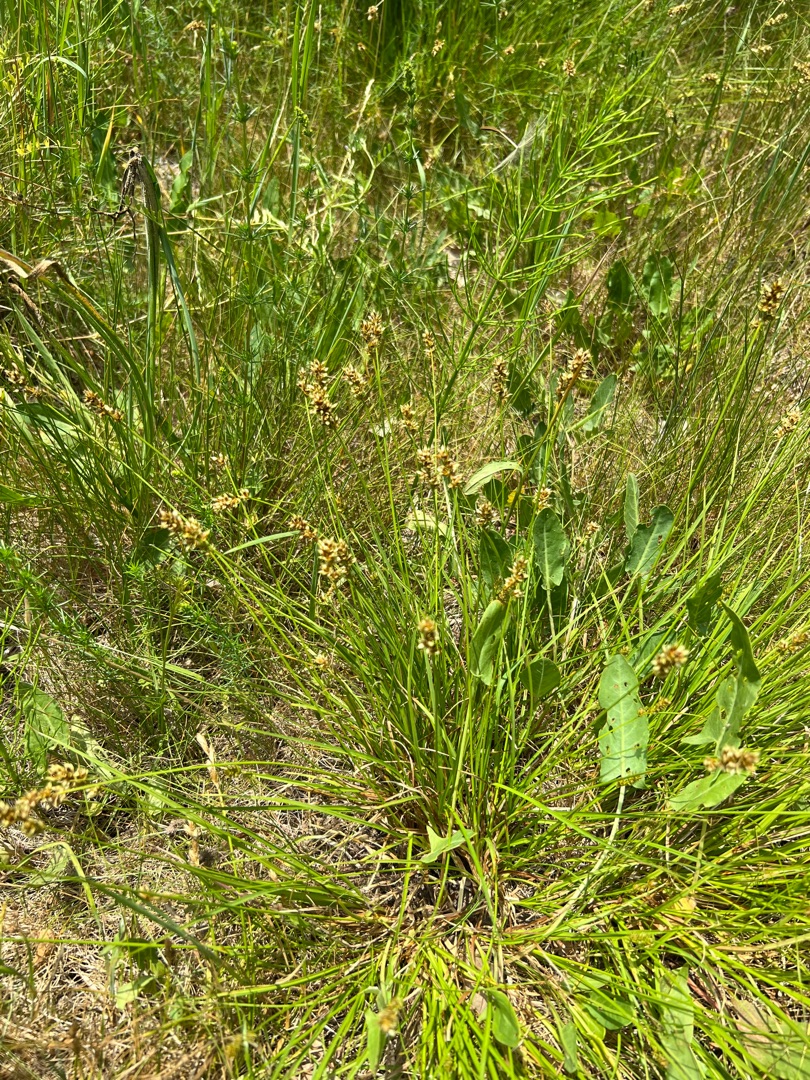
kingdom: Plantae
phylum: Tracheophyta
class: Liliopsida
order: Poales
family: Cyperaceae
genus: Carex
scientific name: Carex pairae
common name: Pigget star
